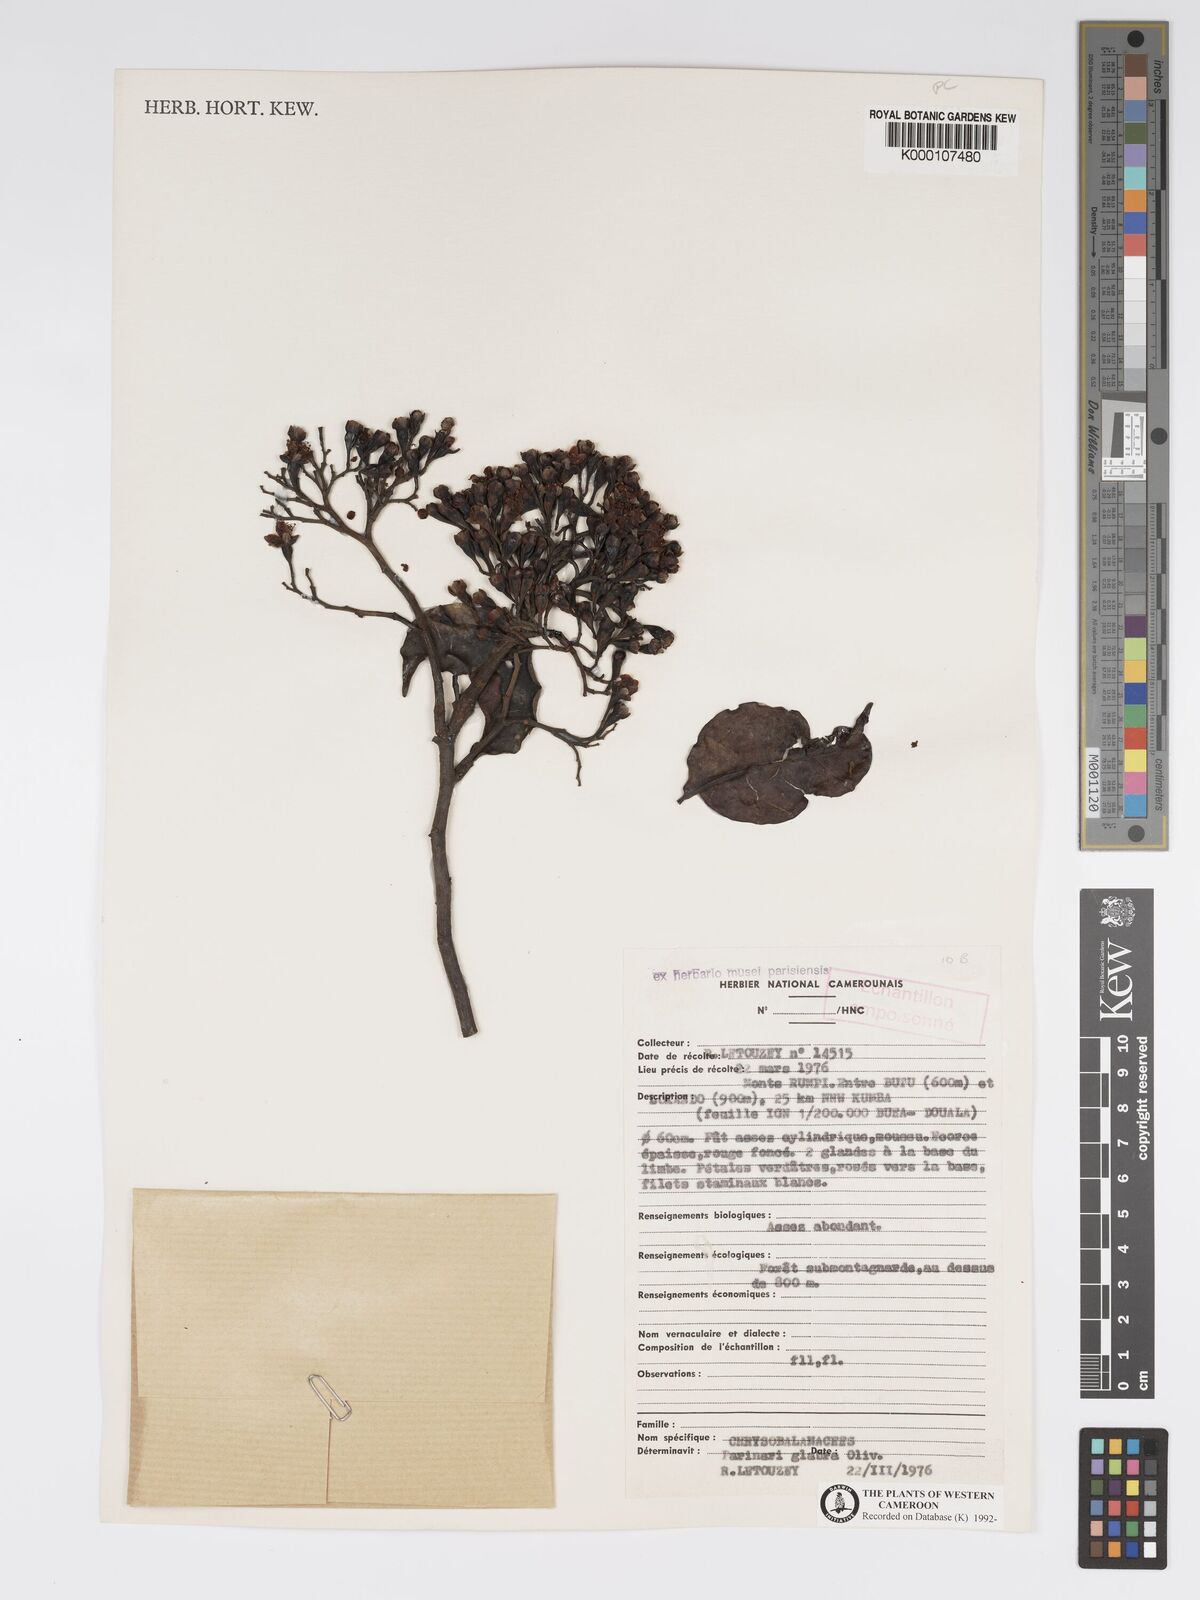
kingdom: Plantae
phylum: Tracheophyta
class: Magnoliopsida
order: Malpighiales
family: Chrysobalanaceae
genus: Maranthes
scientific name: Maranthes glabra
